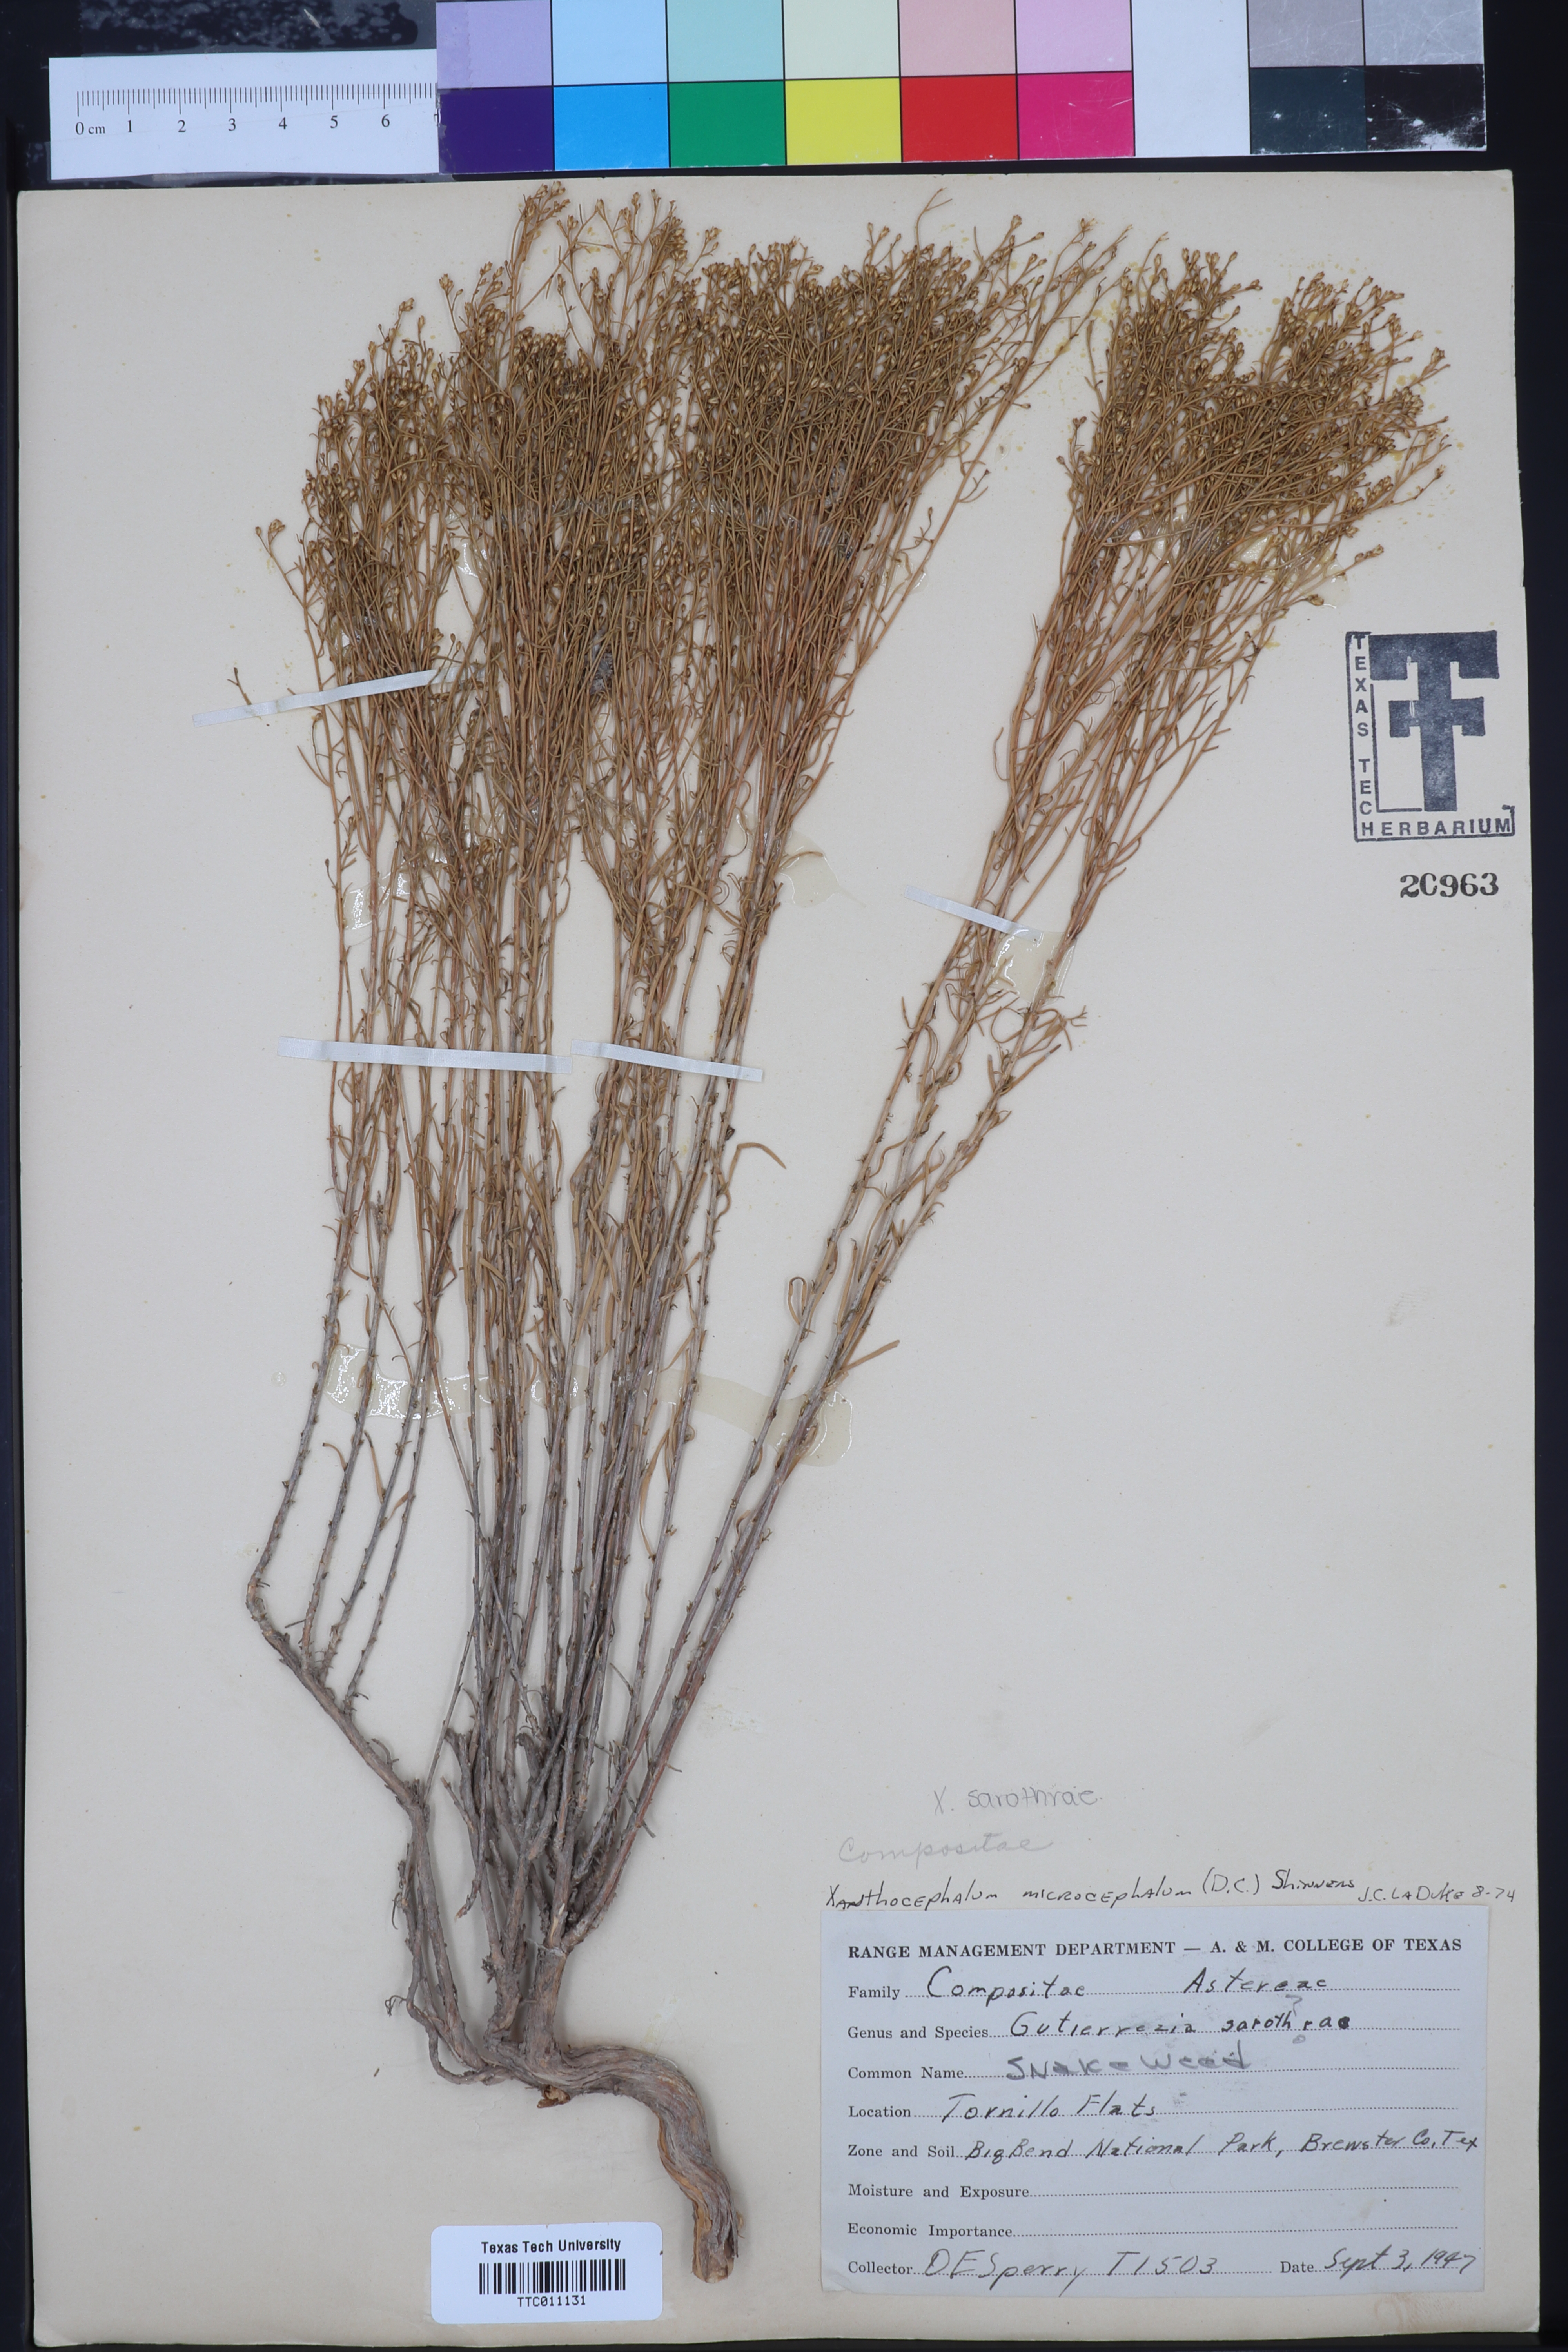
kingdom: Plantae
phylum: Tracheophyta
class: Magnoliopsida
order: Asterales
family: Asteraceae
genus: Gutierrezia
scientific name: Gutierrezia microcephala
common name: Thread snakeweed
